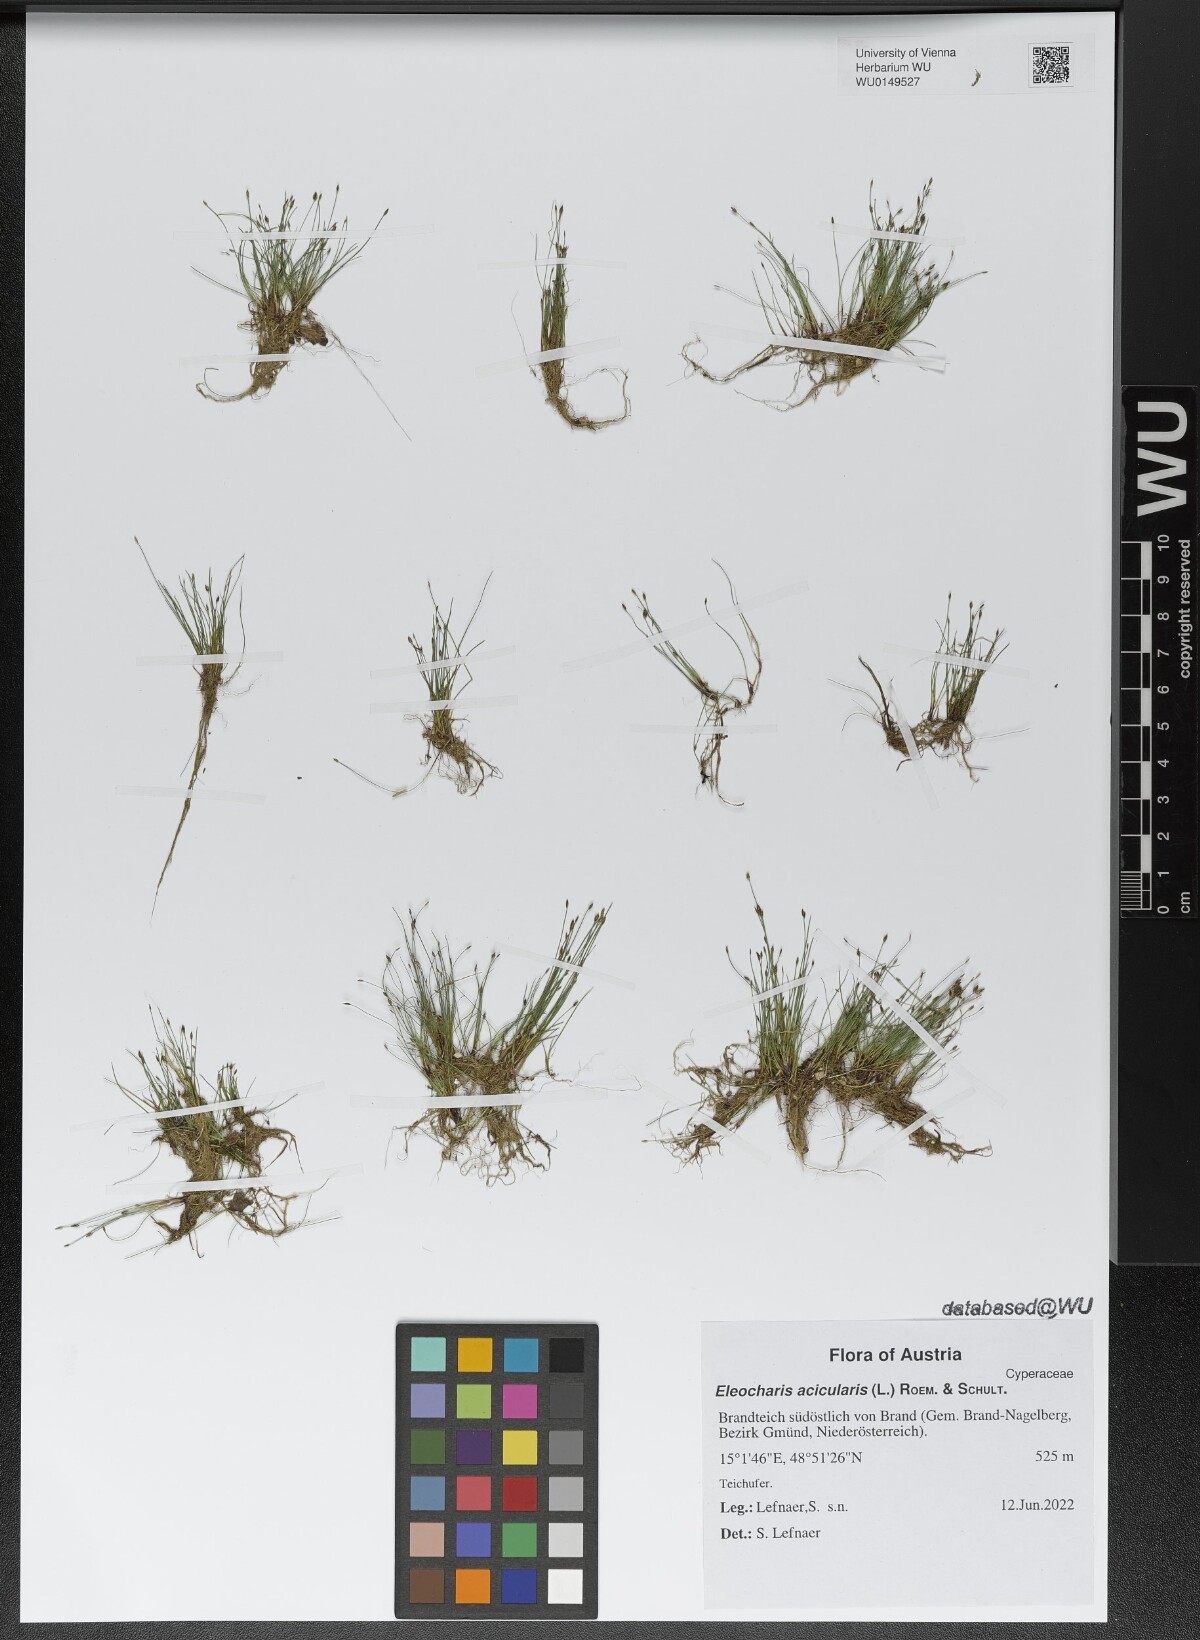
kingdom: Plantae
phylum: Tracheophyta
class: Liliopsida
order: Poales
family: Cyperaceae
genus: Eleocharis
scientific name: Eleocharis acicularis
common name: Needle spike-rush
